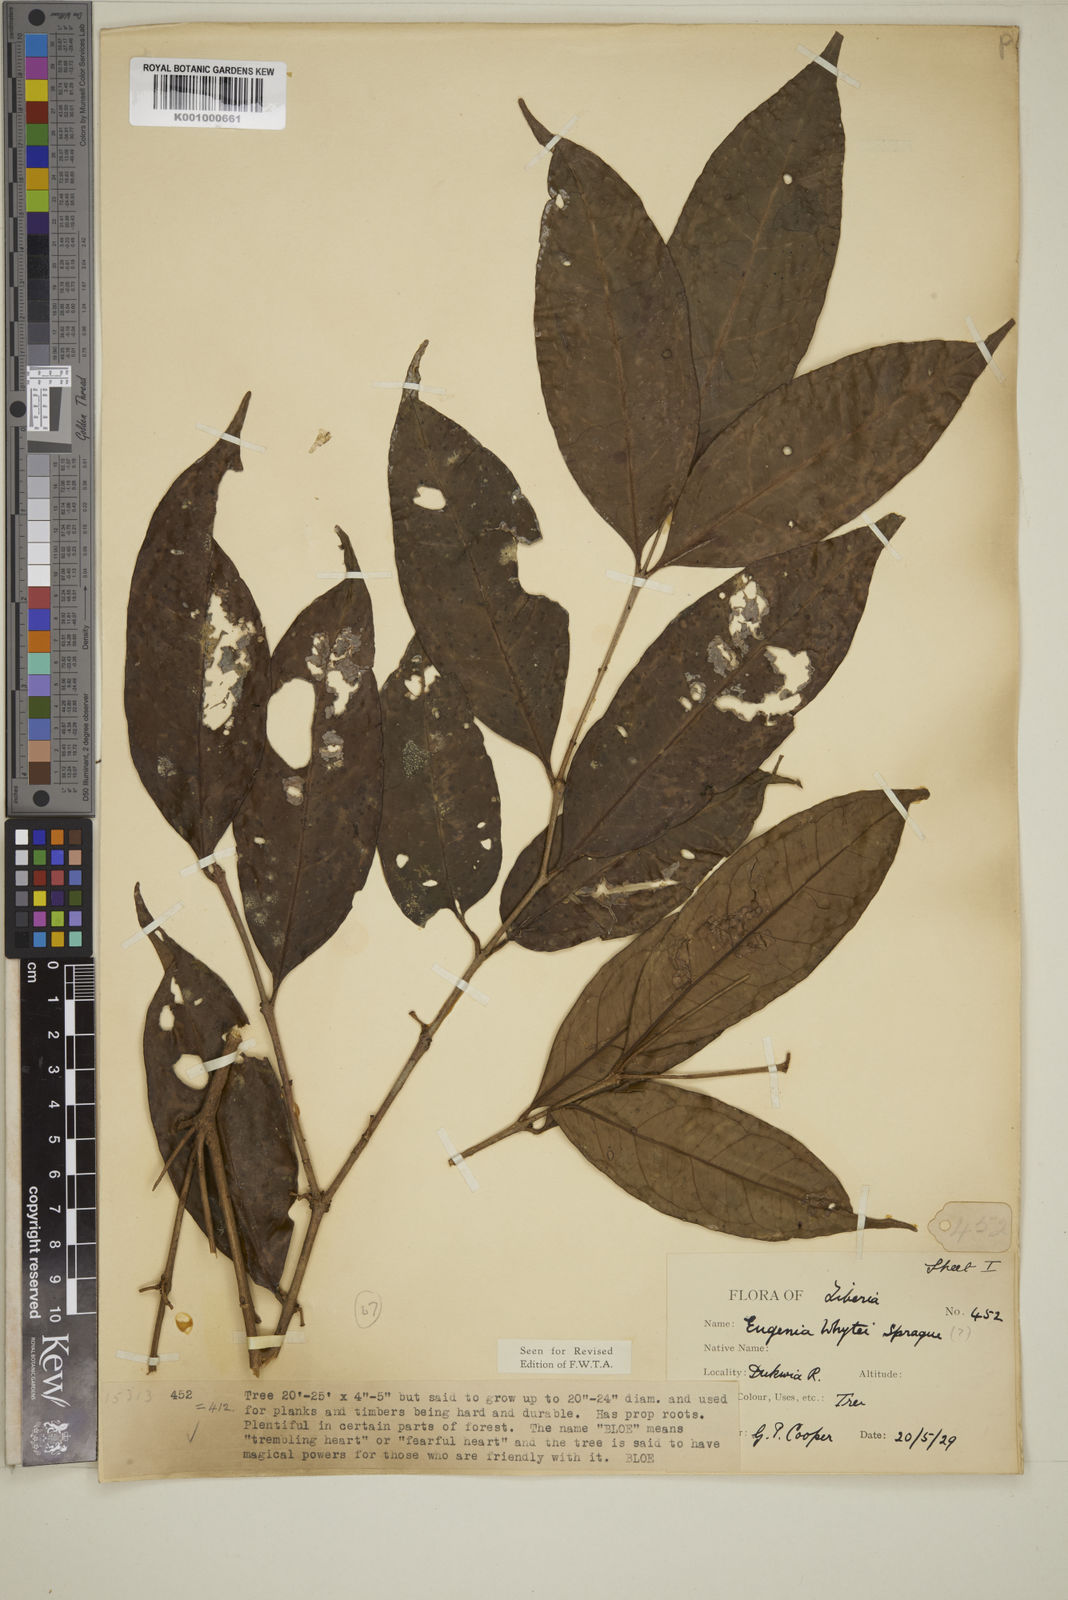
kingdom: Plantae
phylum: Tracheophyta
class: Magnoliopsida
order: Myrtales
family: Myrtaceae
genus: Eugenia
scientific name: Eugenia whytei
